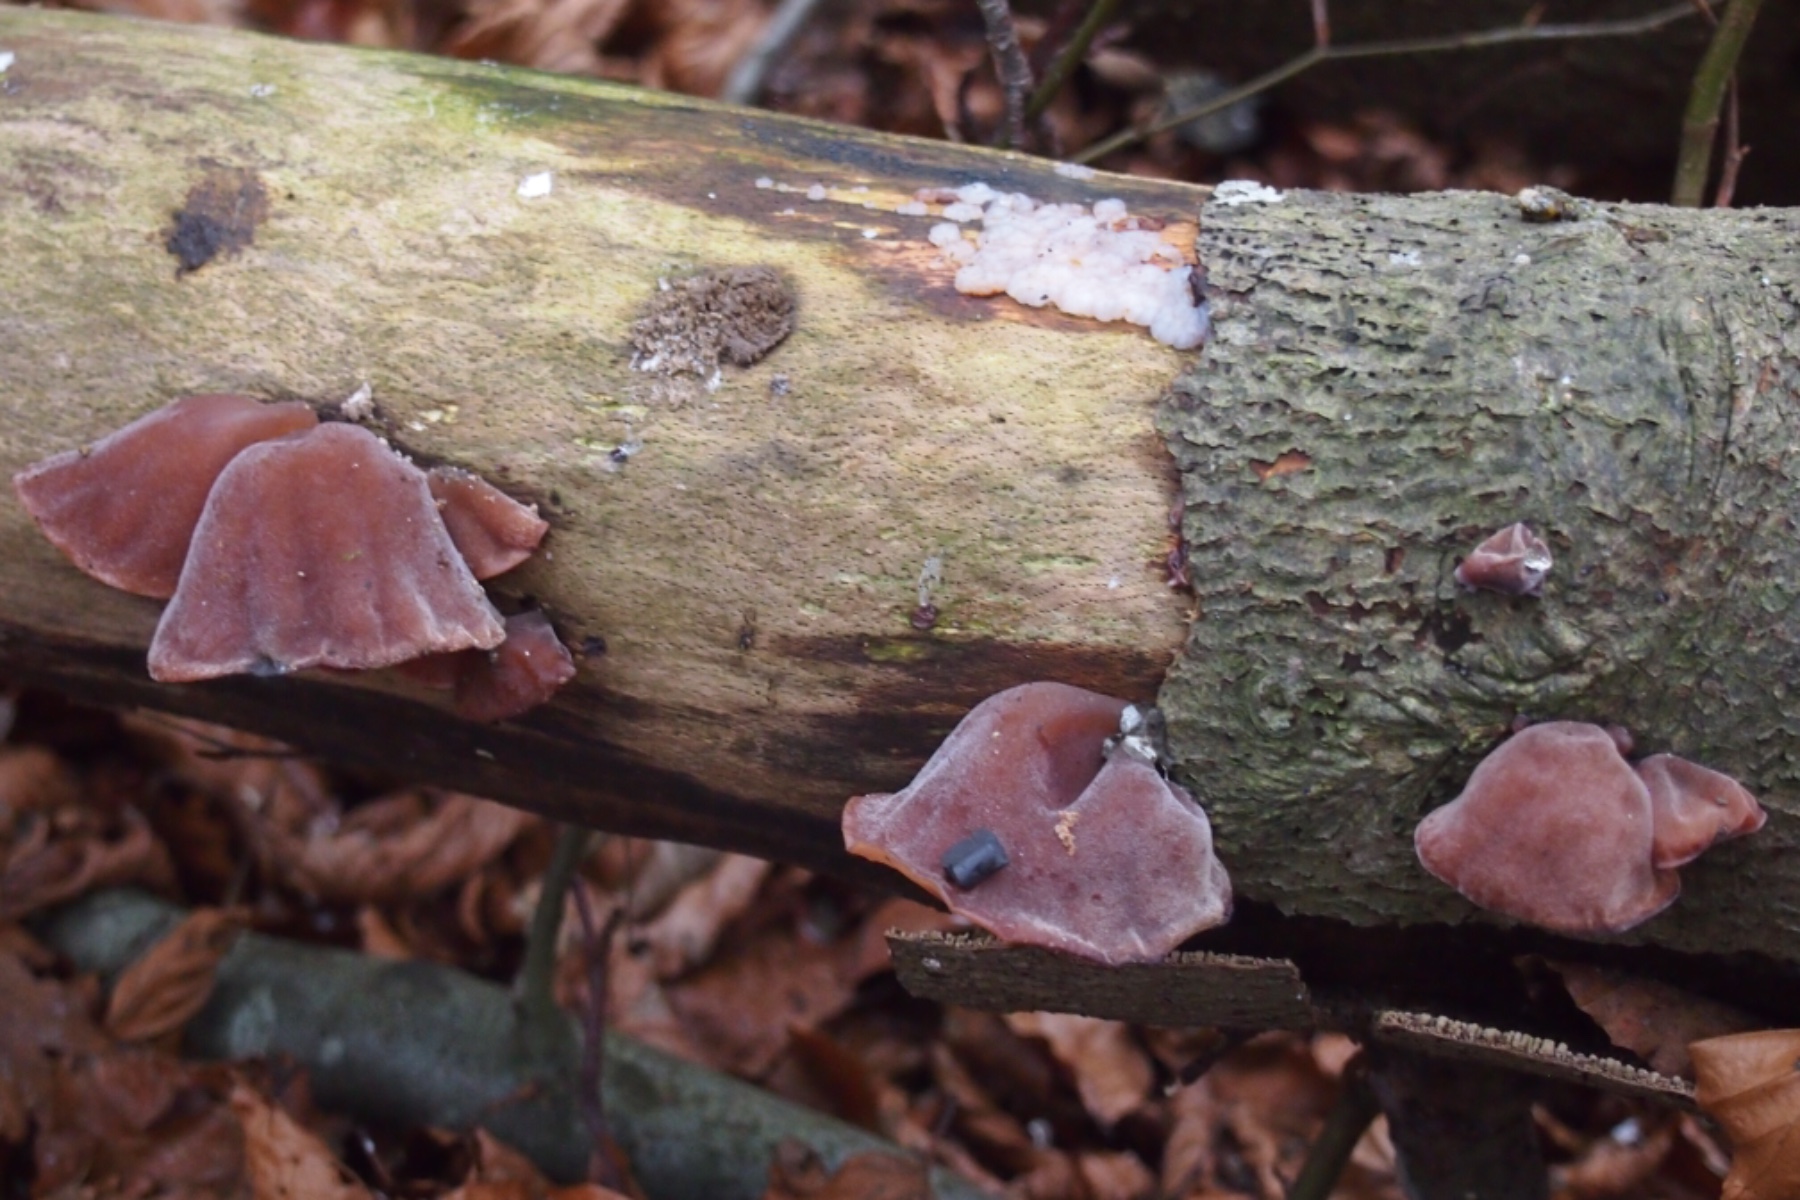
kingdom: Fungi
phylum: Basidiomycota
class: Agaricomycetes
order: Auriculariales
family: Auriculariaceae
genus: Auricularia
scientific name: Auricularia auricula-judae
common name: almindelig judasøre
